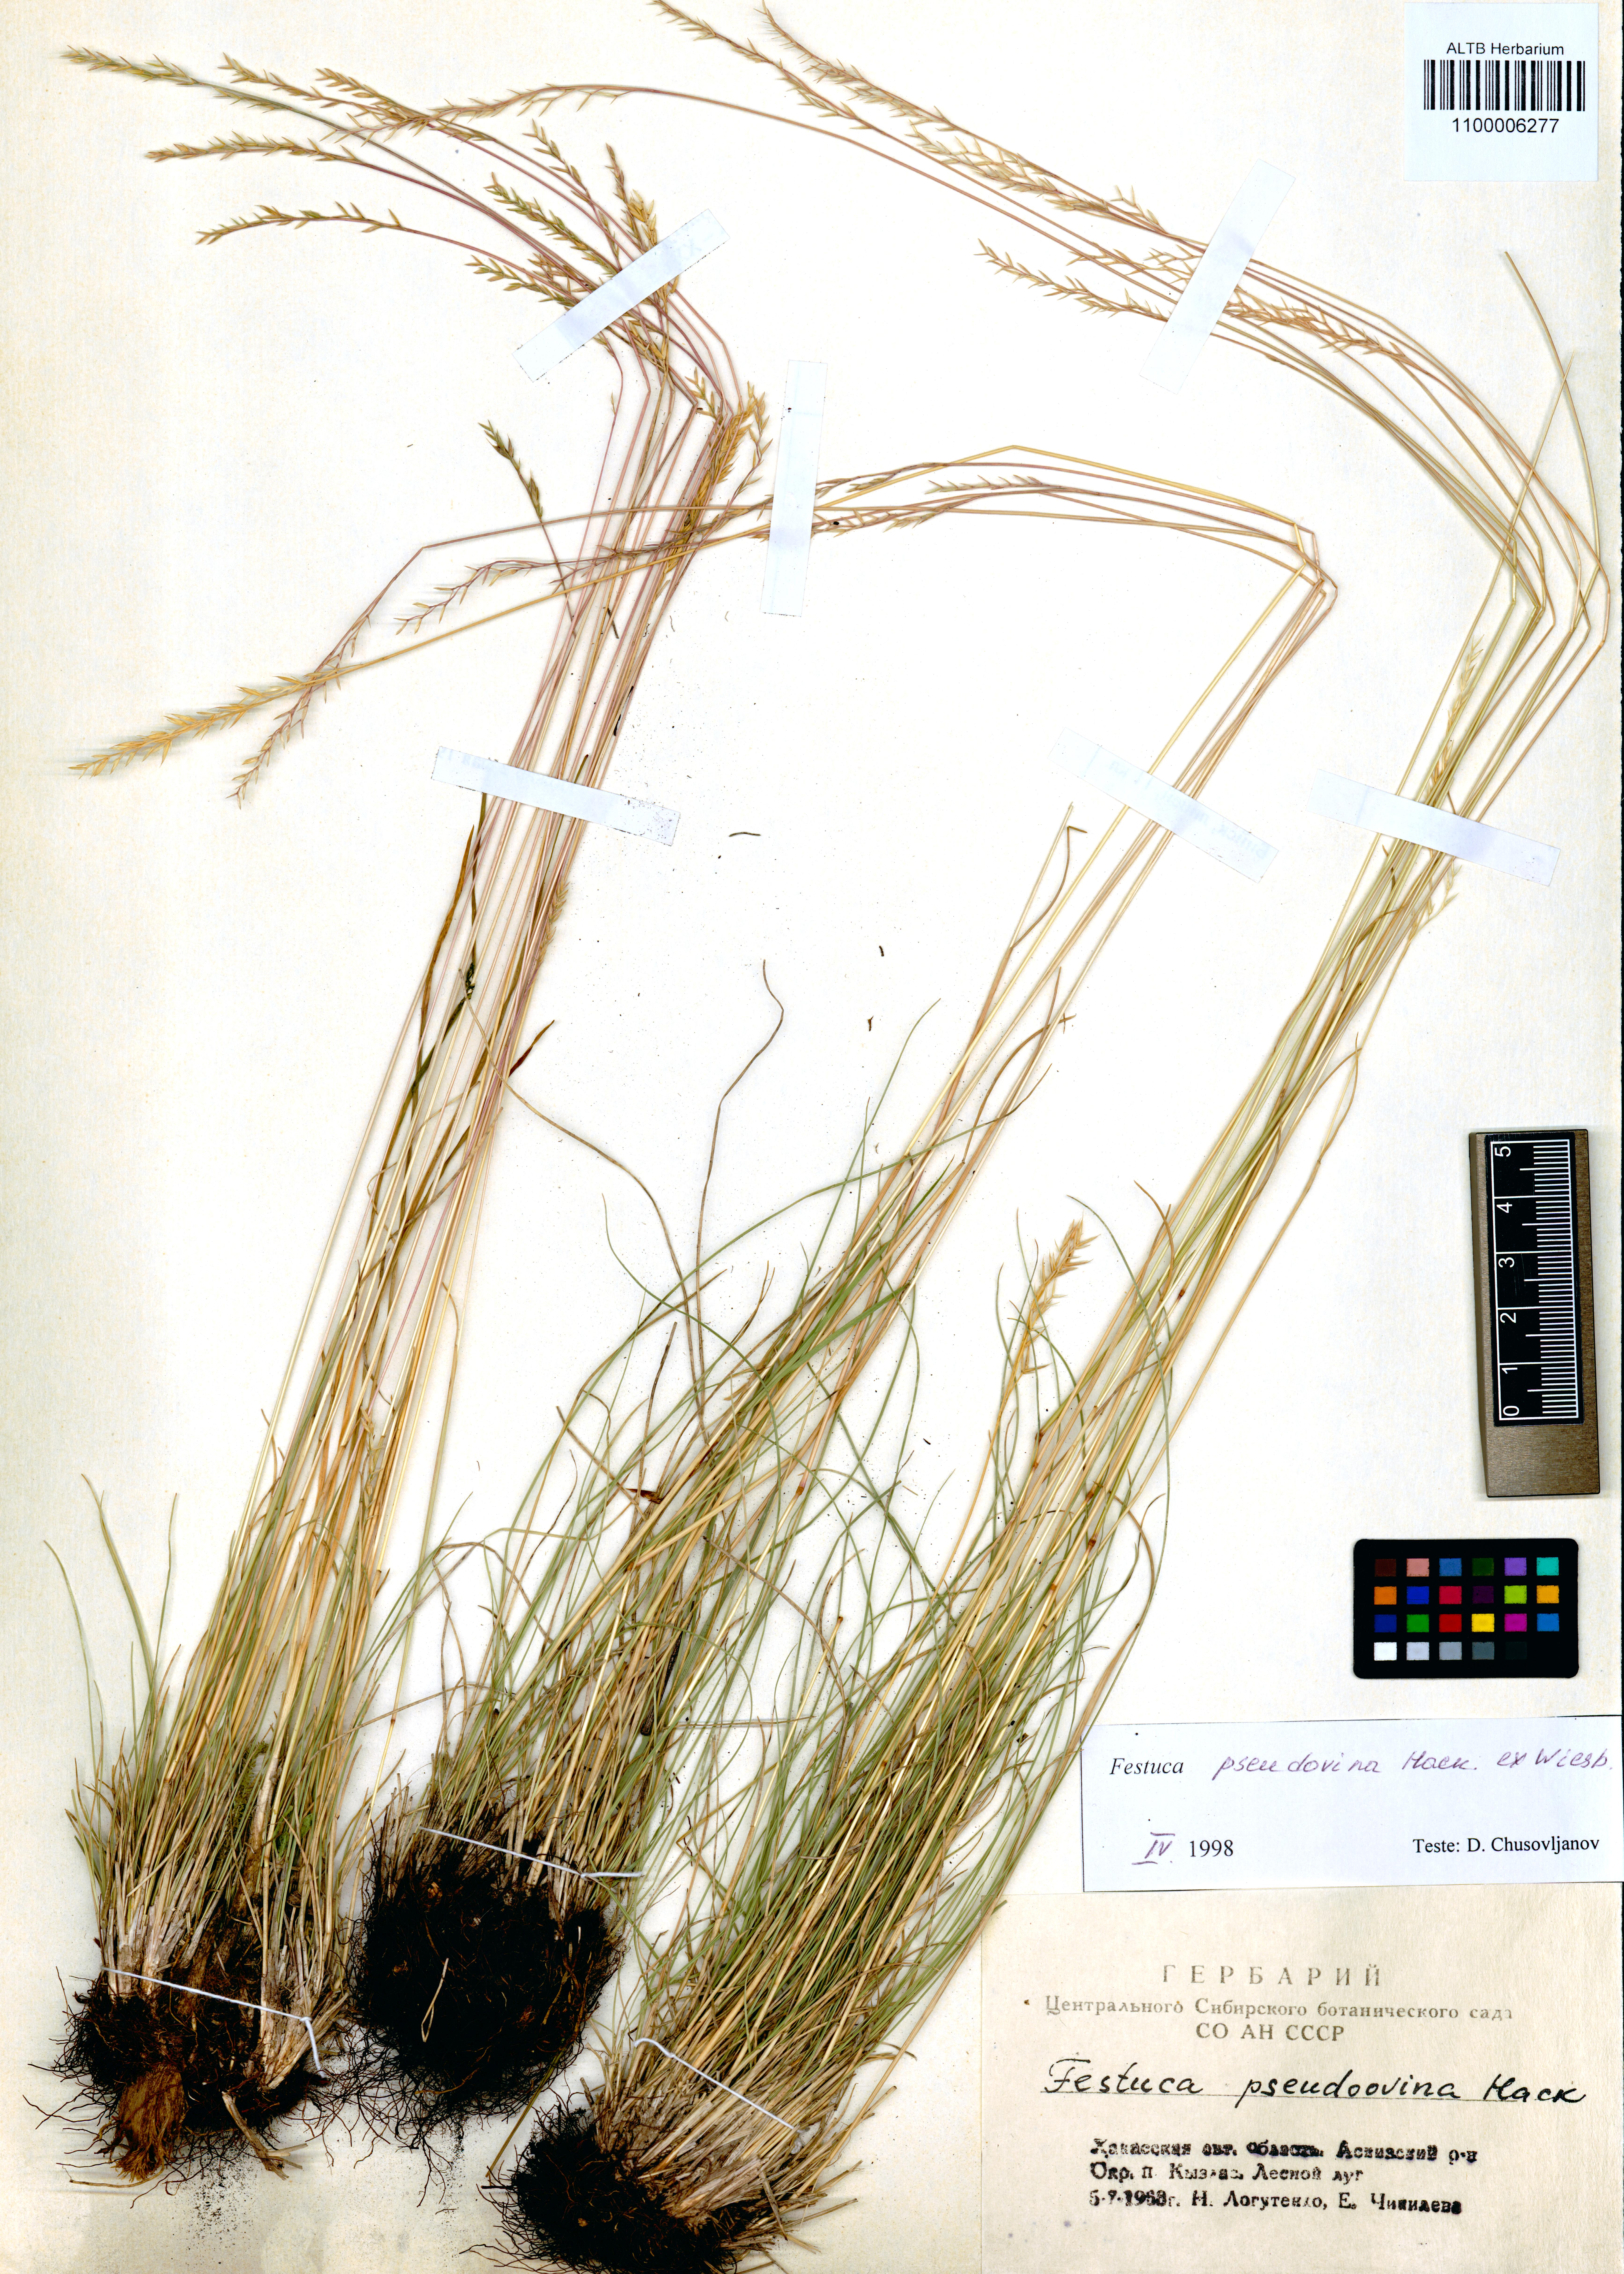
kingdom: Plantae
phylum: Tracheophyta
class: Liliopsida
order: Poales
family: Poaceae
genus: Festuca
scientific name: Festuca pulchra
